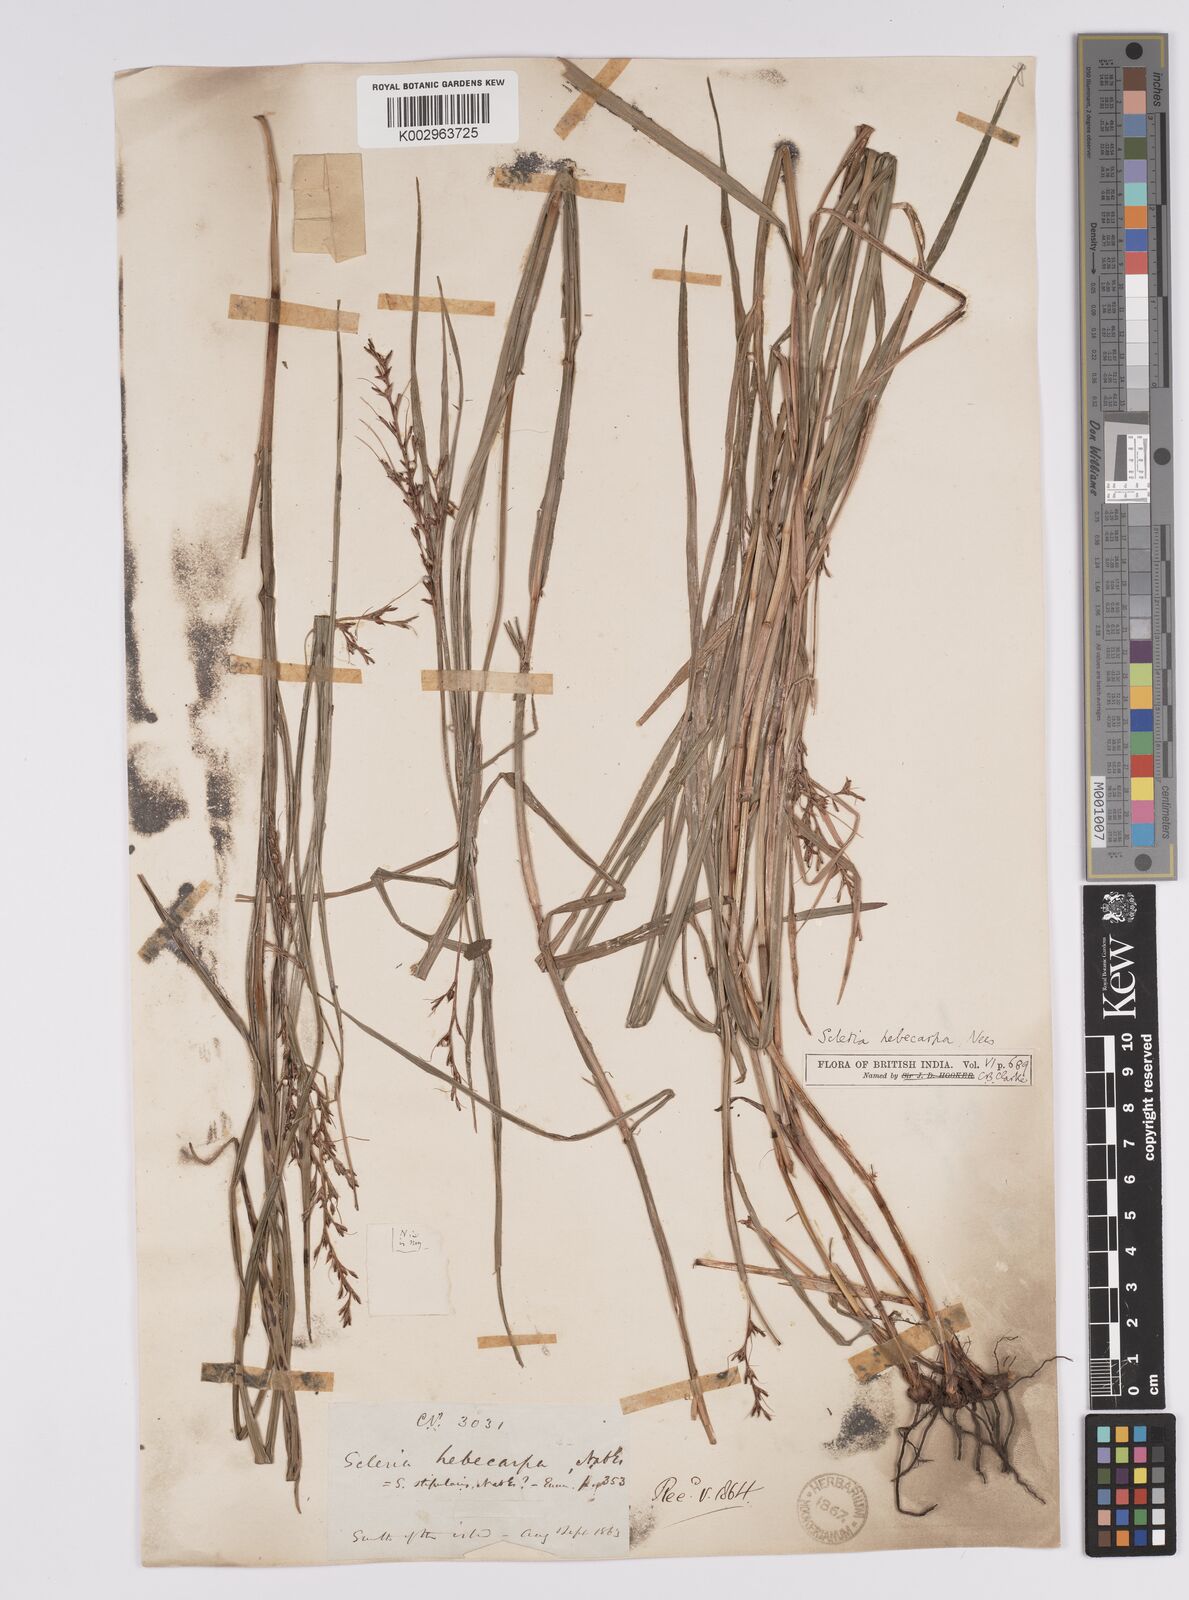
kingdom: Plantae
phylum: Tracheophyta
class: Liliopsida
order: Poales
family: Cyperaceae
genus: Scleria
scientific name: Scleria levis
